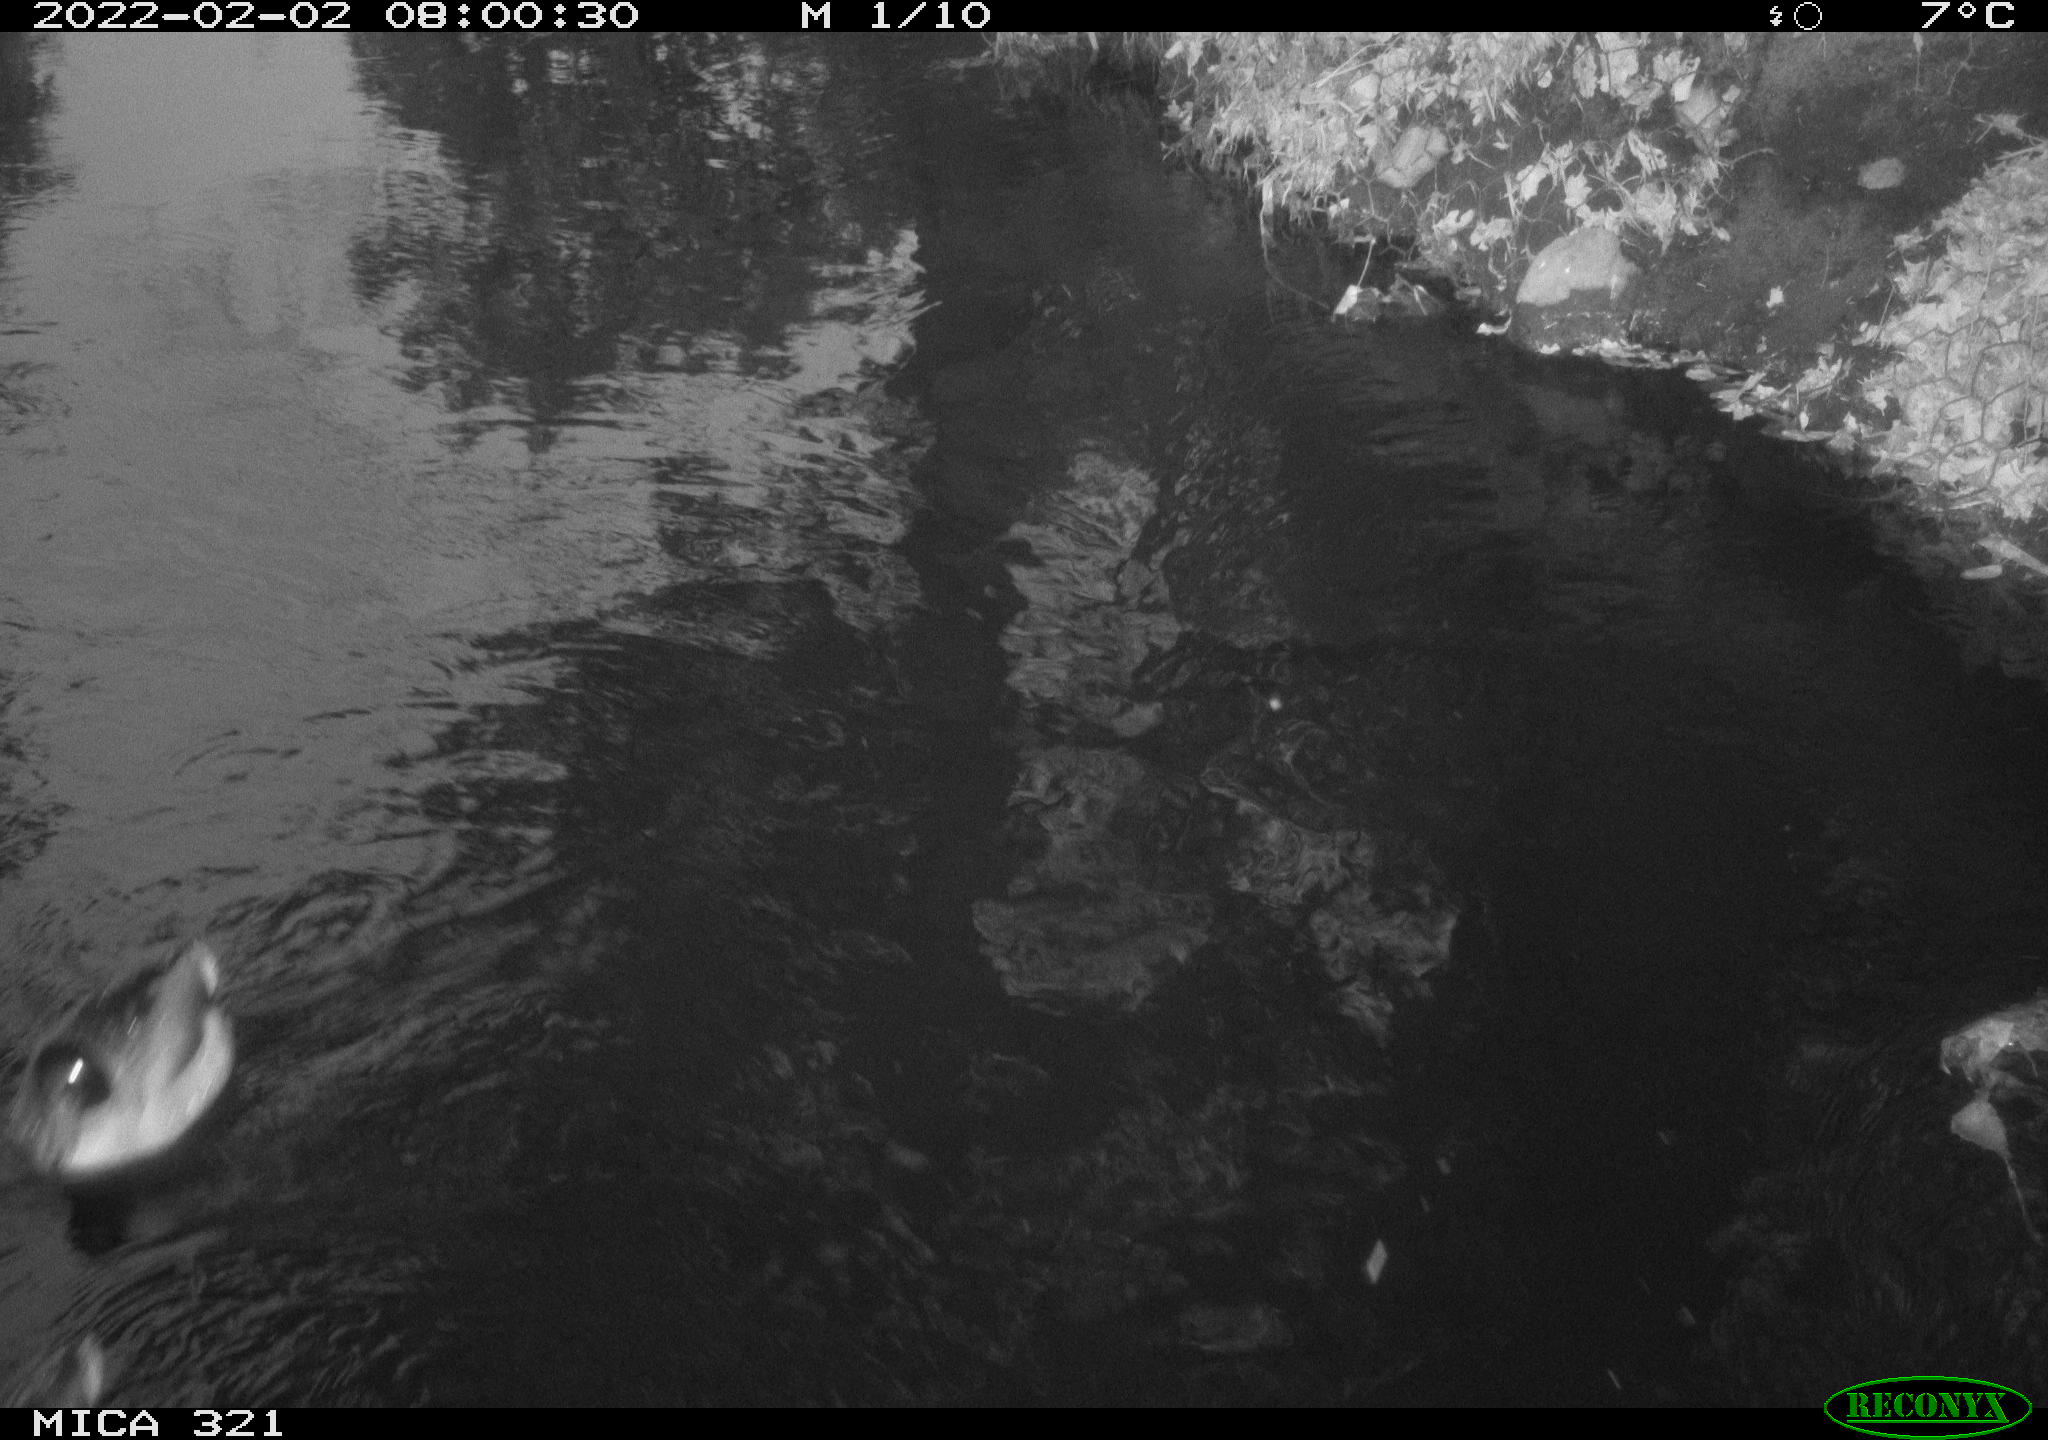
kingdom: Animalia
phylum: Chordata
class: Aves
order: Anseriformes
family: Anatidae
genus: Anas
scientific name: Anas
